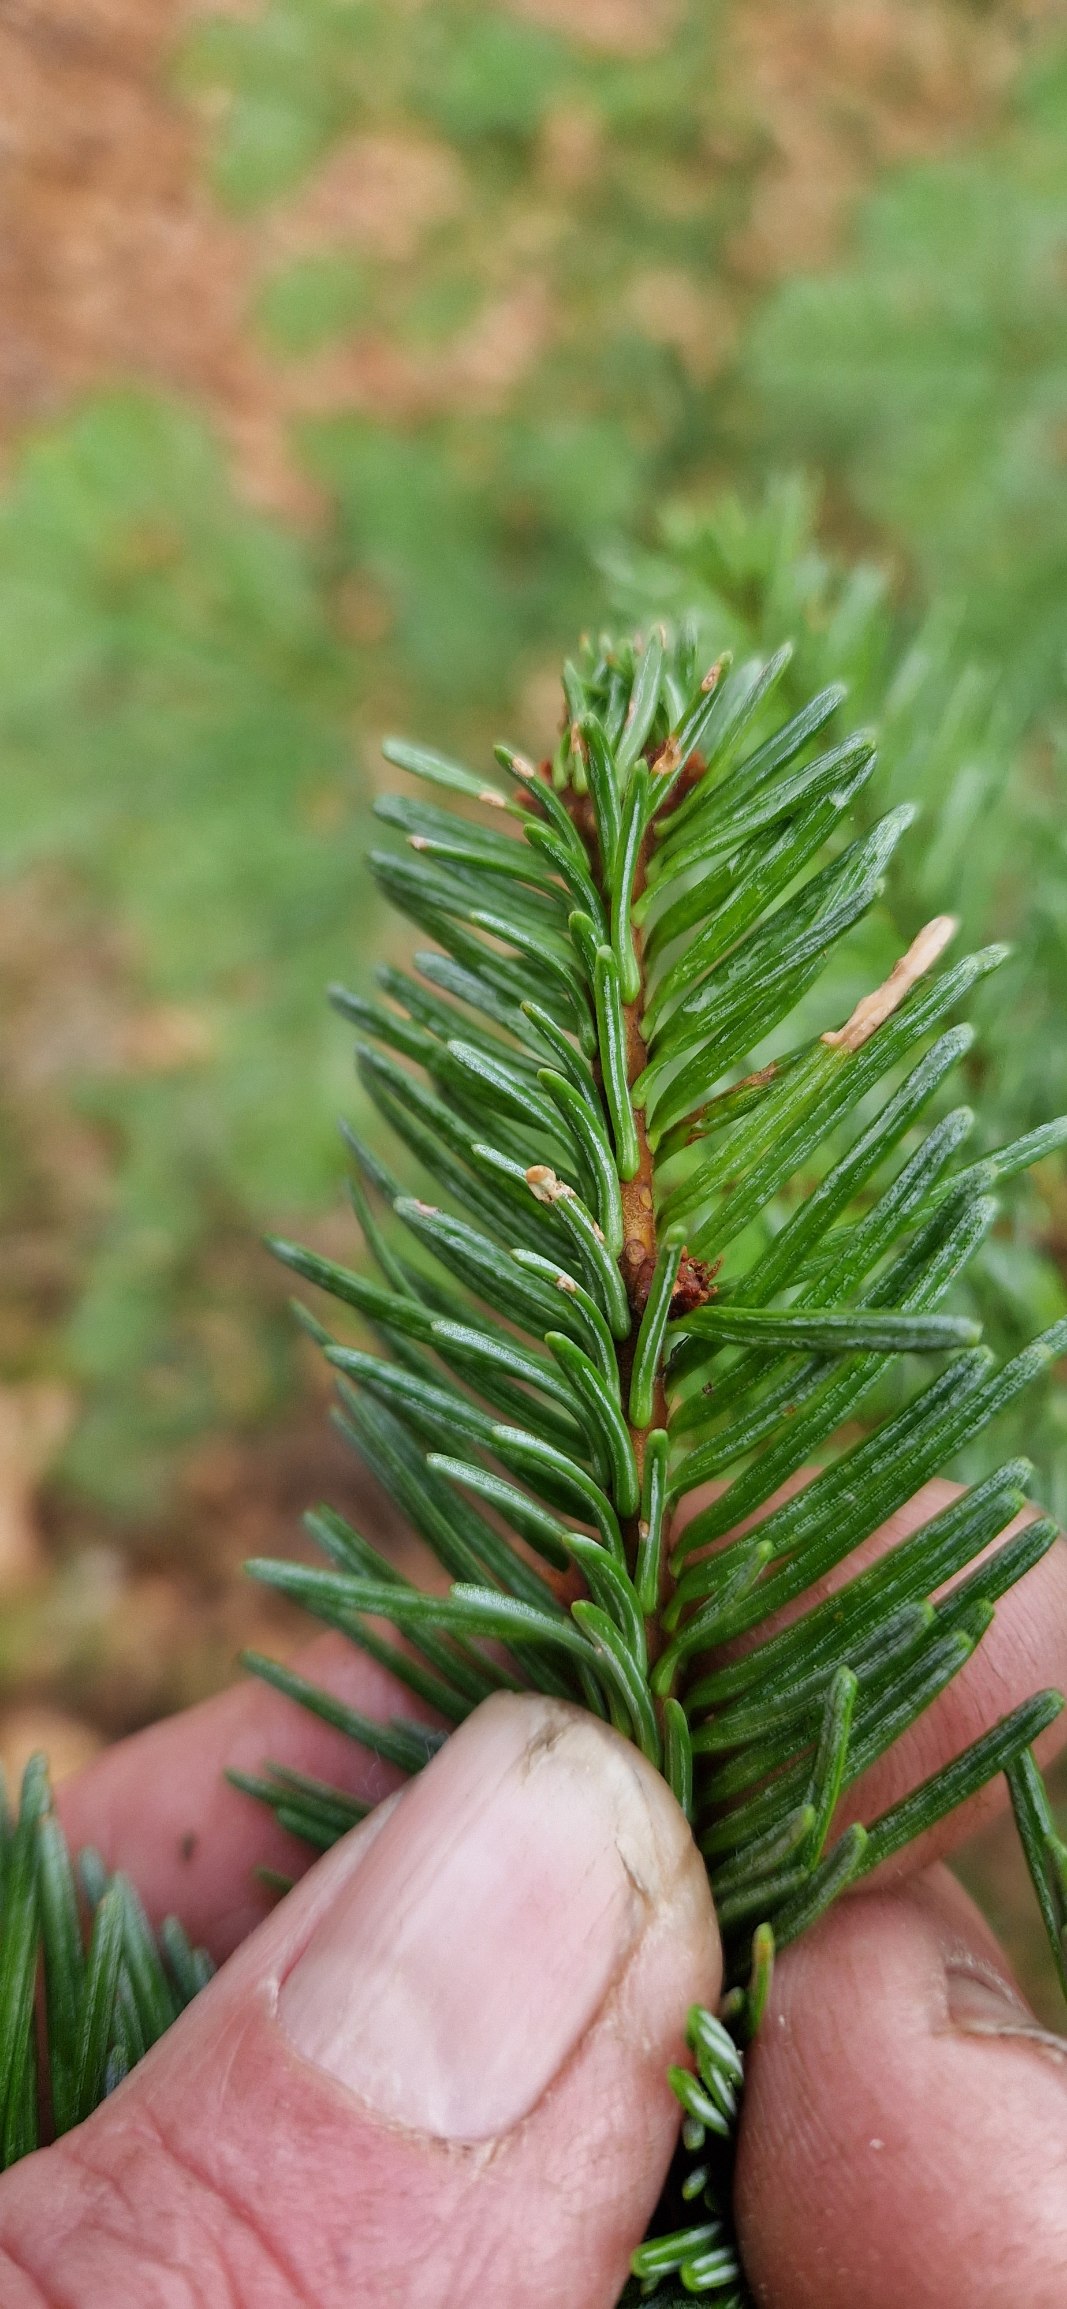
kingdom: Plantae
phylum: Tracheophyta
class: Pinopsida
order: Pinales
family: Pinaceae
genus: Abies
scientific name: Abies procera
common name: Sølvgran
